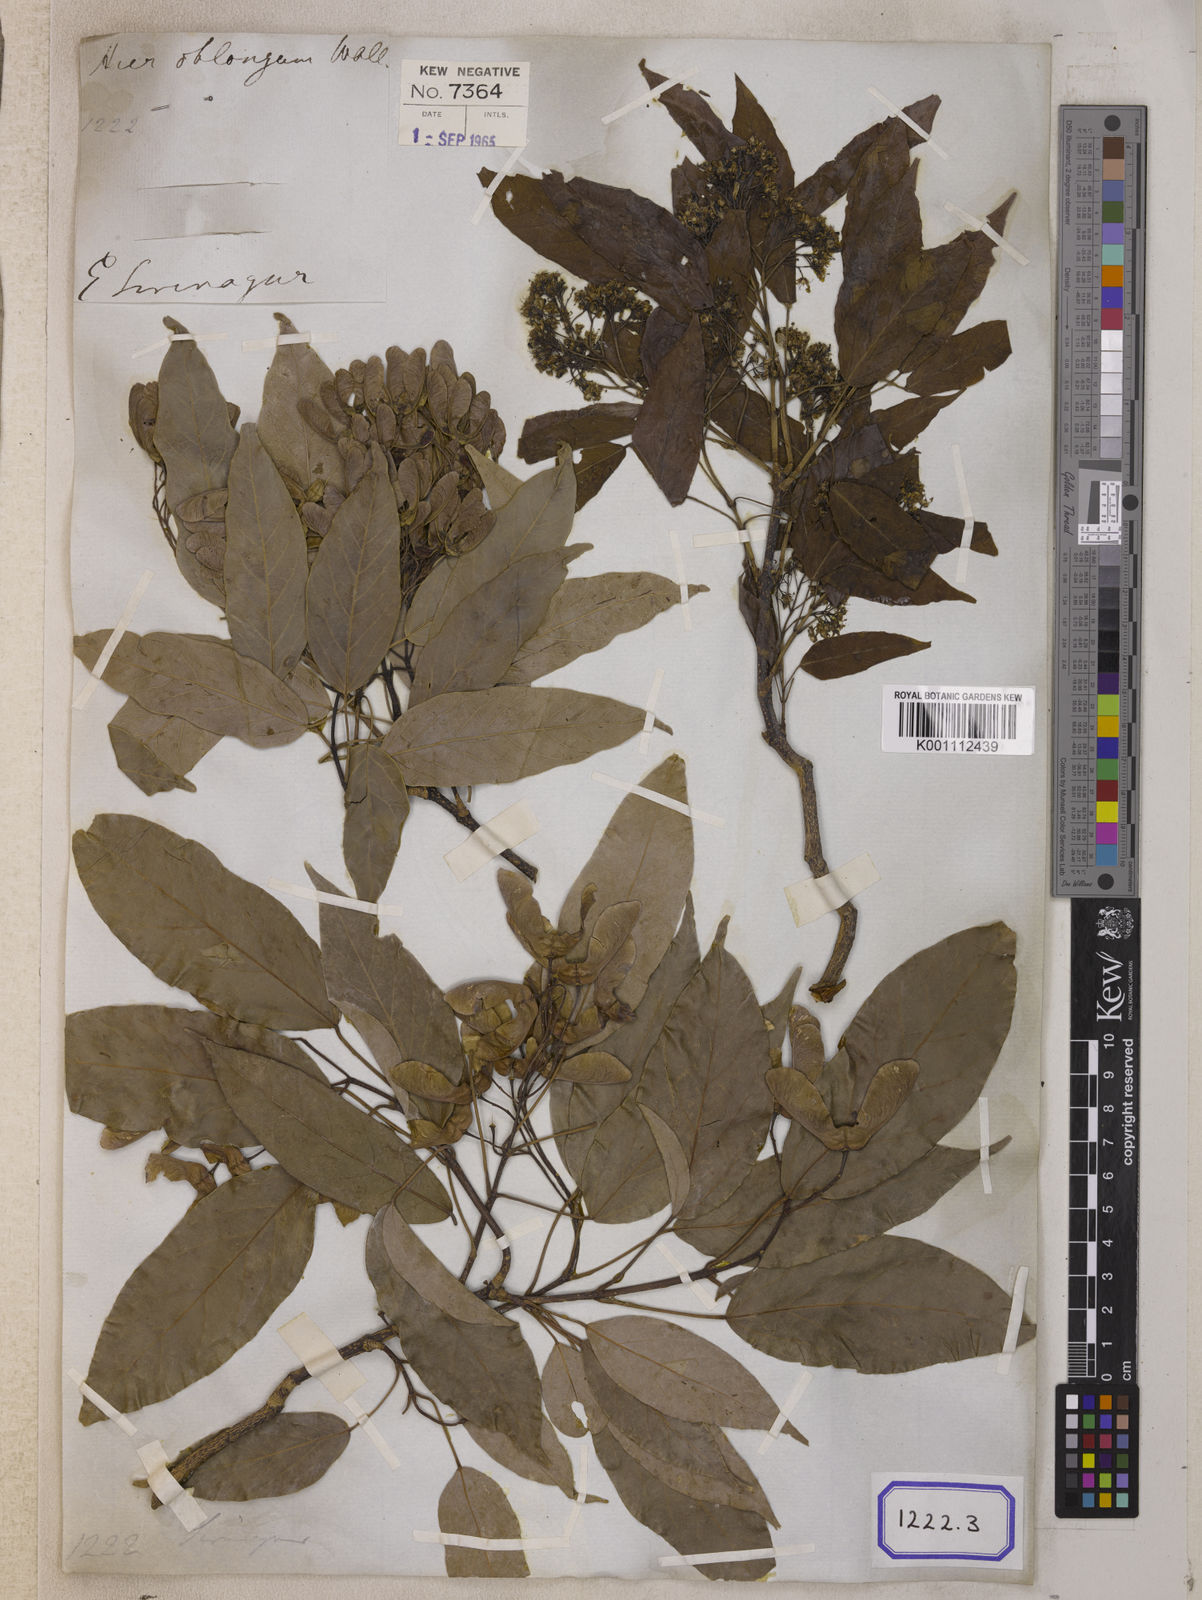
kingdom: Plantae
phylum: Tracheophyta
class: Magnoliopsida
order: Sapindales
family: Sapindaceae
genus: Acer
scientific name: Acer
